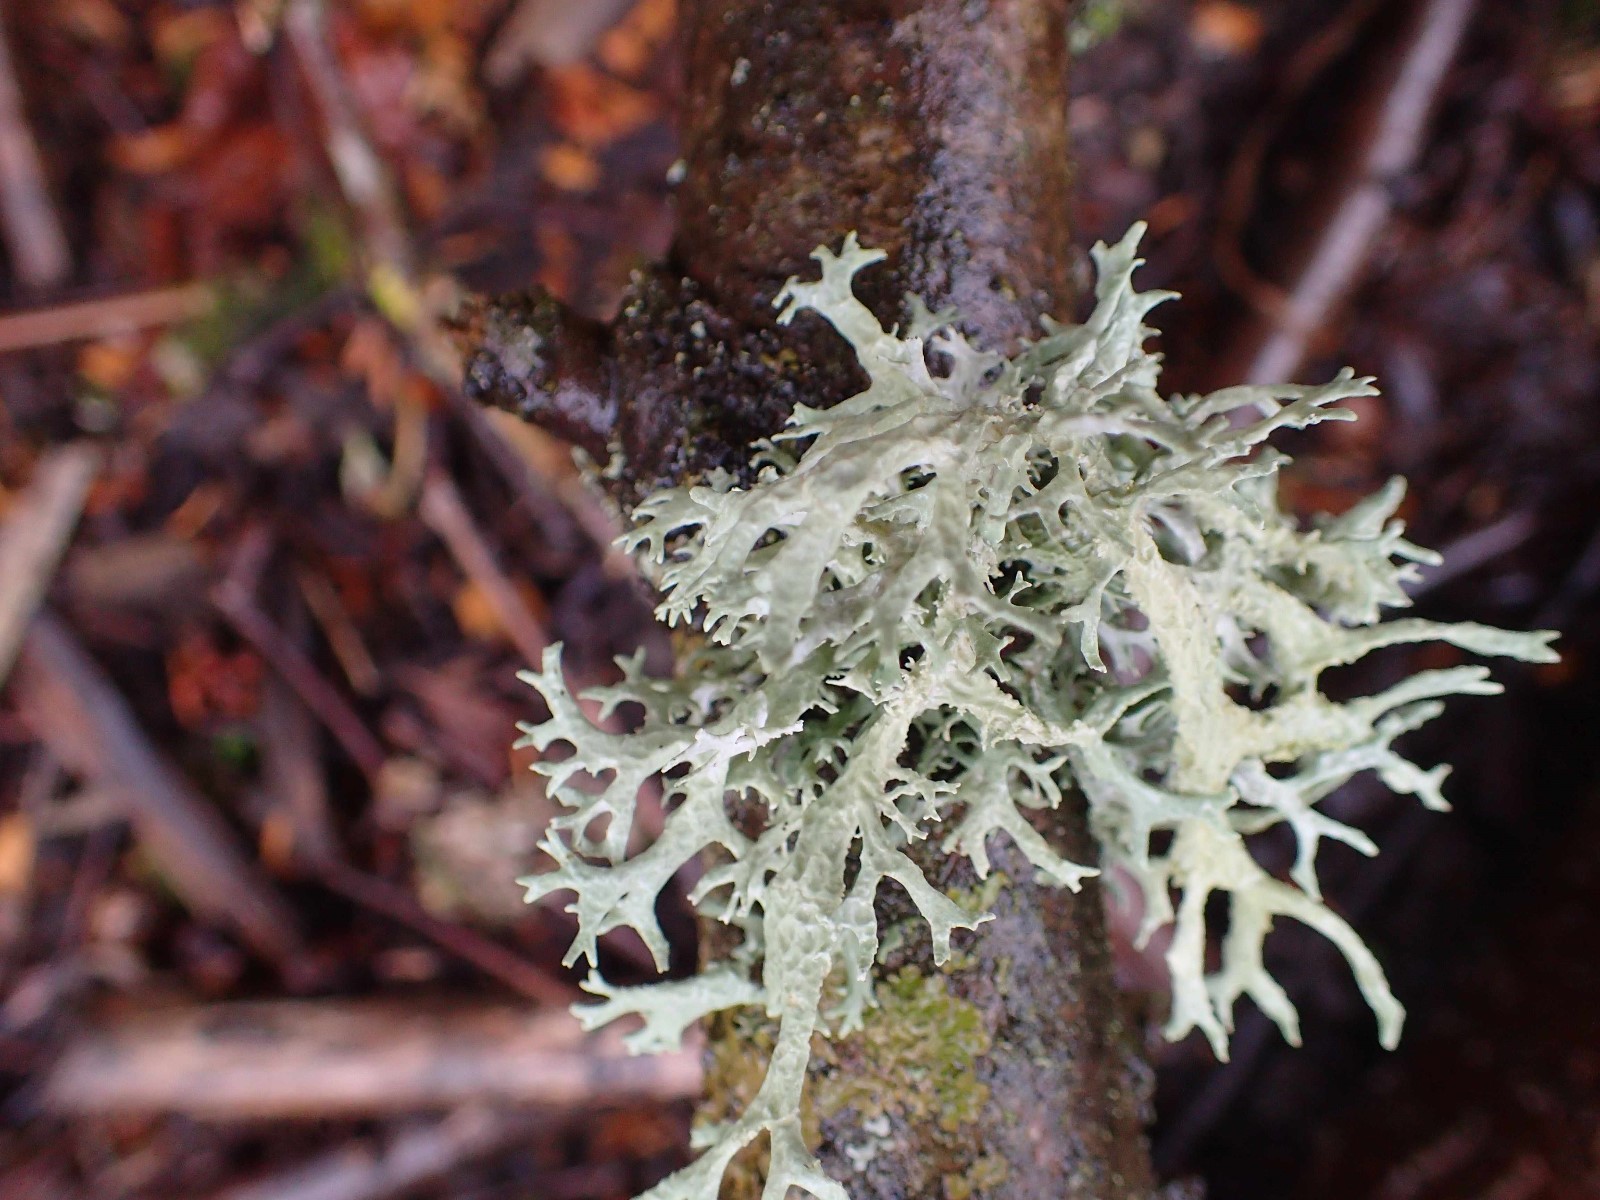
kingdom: Fungi
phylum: Ascomycota
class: Lecanoromycetes
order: Lecanorales
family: Parmeliaceae
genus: Evernia
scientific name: Evernia prunastri
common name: almindelig slåenlav
